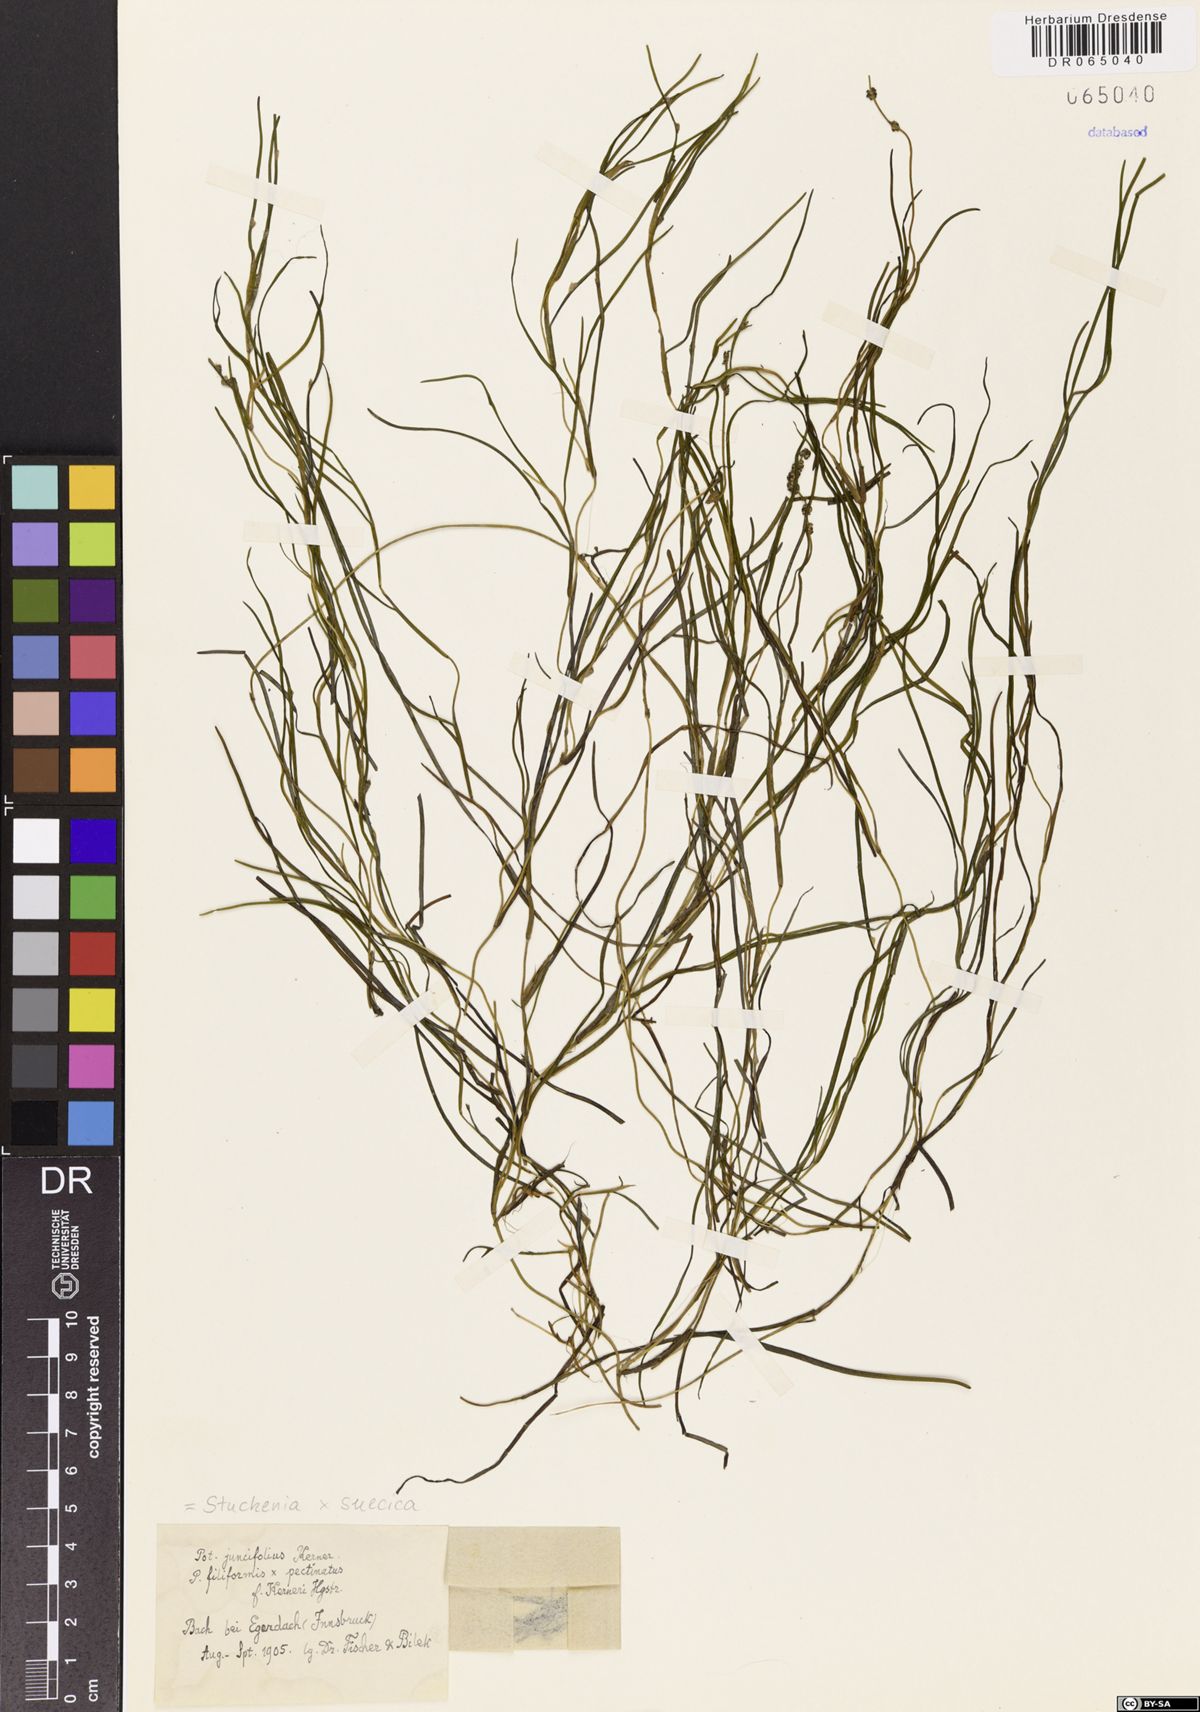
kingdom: Plantae
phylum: Tracheophyta
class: Liliopsida
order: Alismatales
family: Potamogetonaceae
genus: Stuckenia
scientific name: Stuckenia suecica
